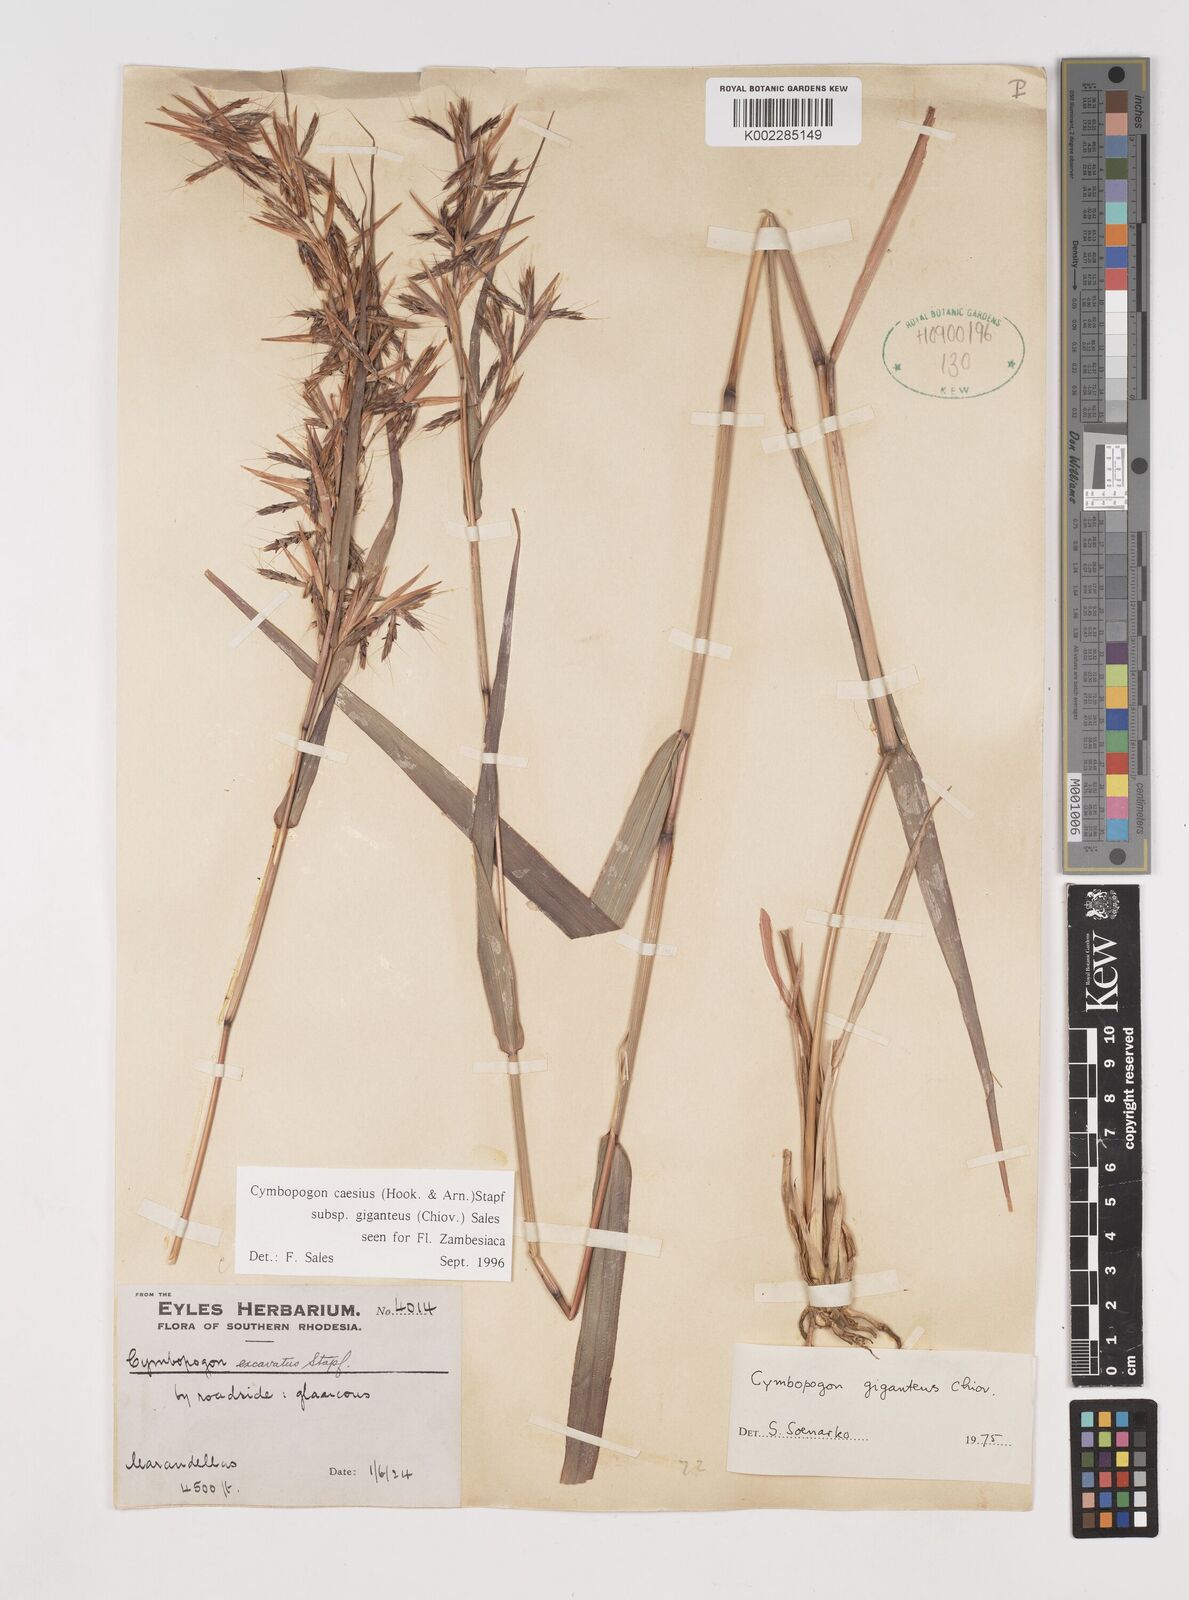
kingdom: Plantae
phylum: Tracheophyta
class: Liliopsida
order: Poales
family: Poaceae
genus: Cymbopogon
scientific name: Cymbopogon giganteus
